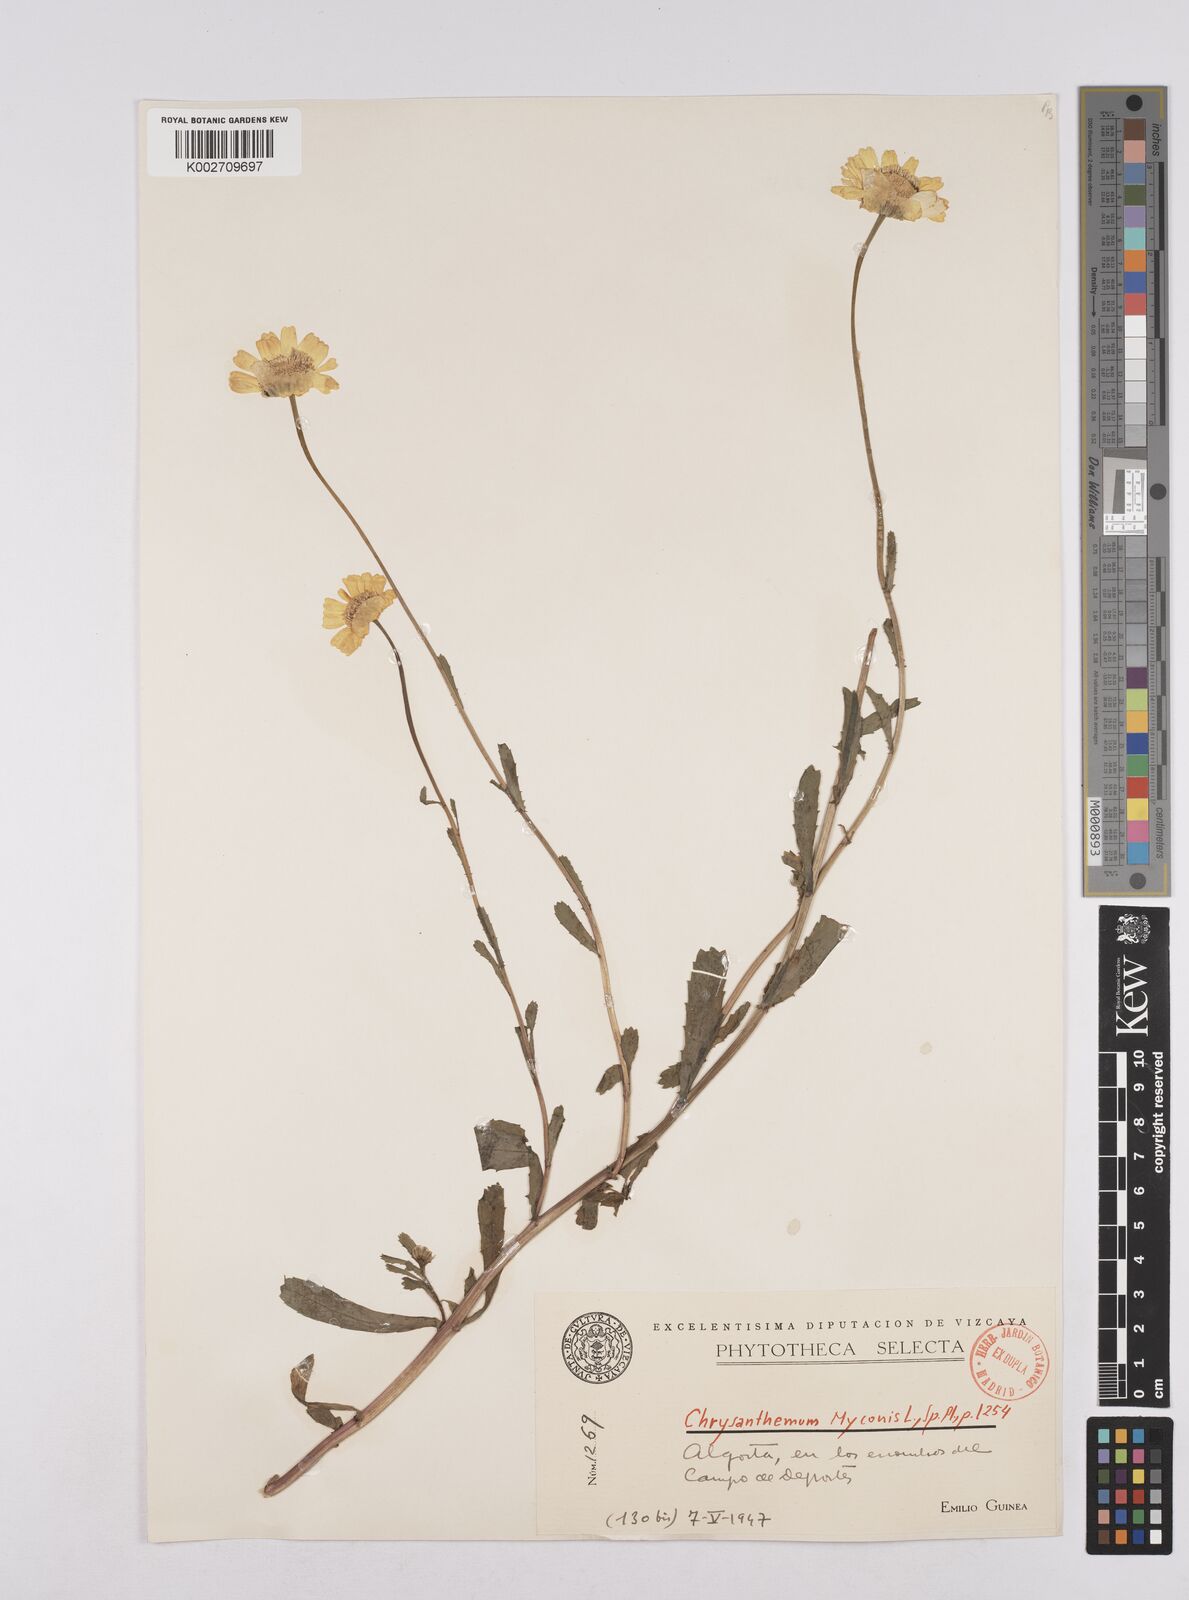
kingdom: Plantae
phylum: Tracheophyta
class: Magnoliopsida
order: Asterales
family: Asteraceae
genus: Coleostephus
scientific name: Coleostephus myconis
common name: Mediterranean marigold
